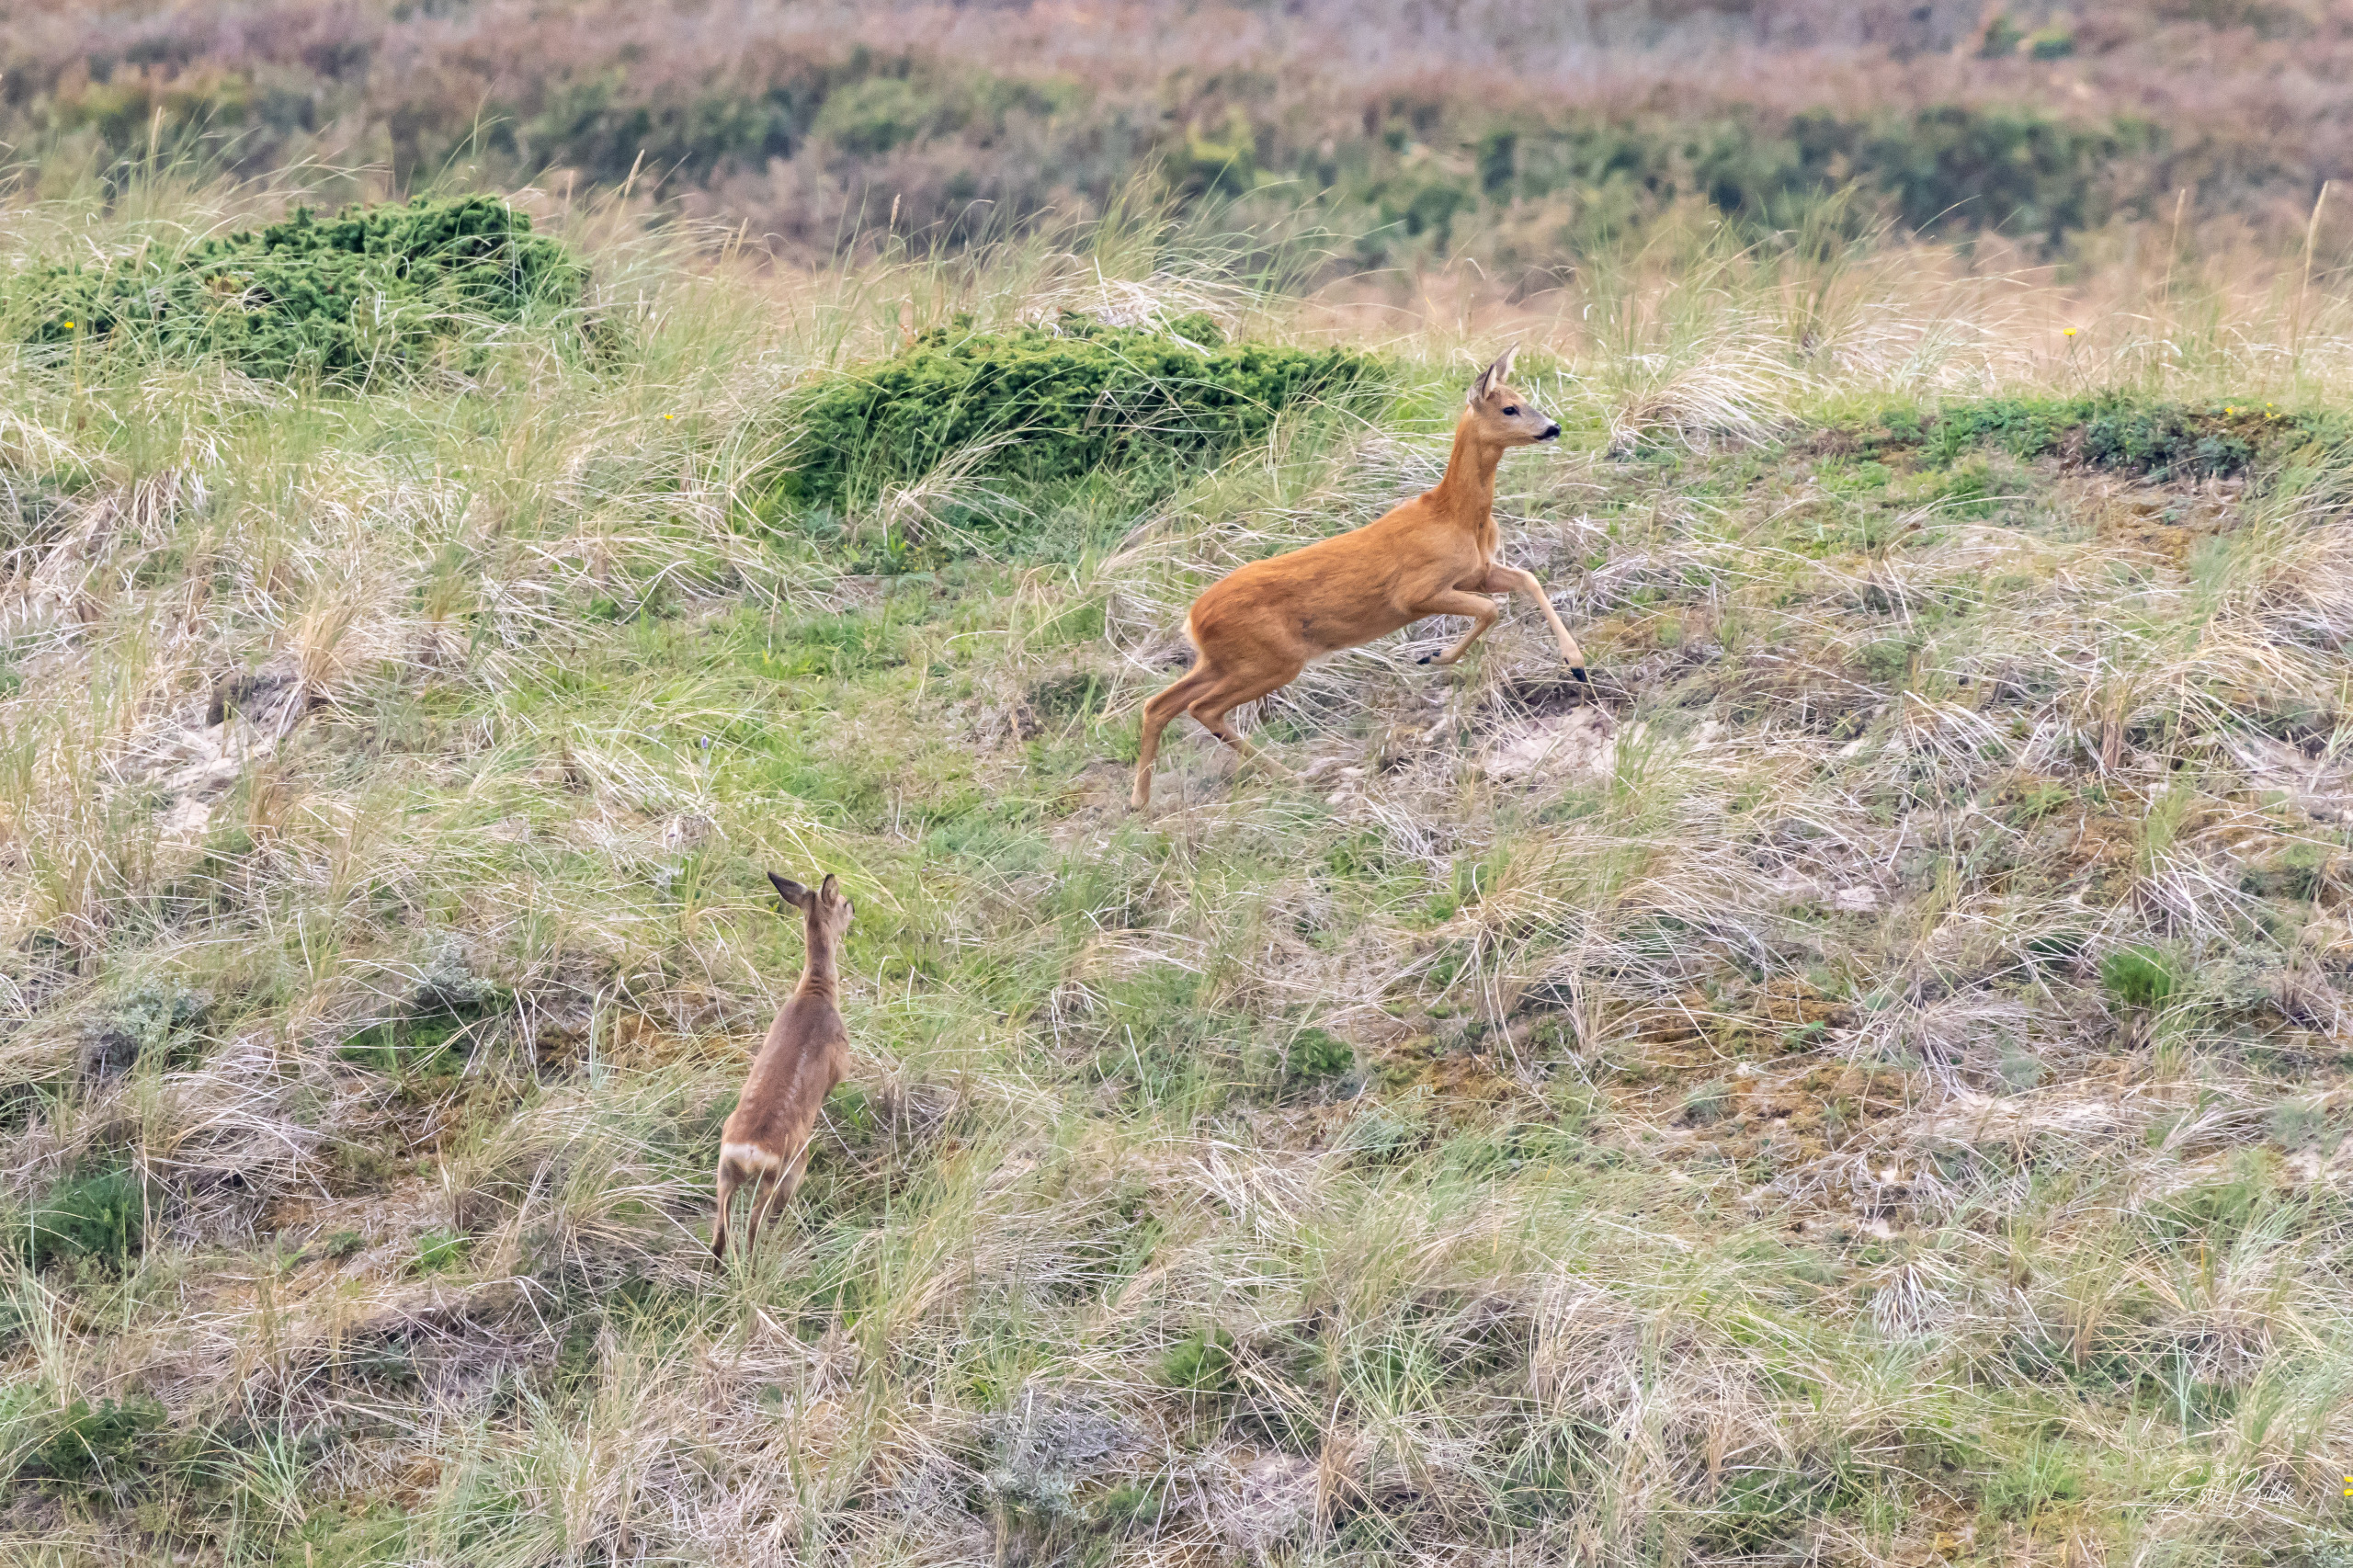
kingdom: Animalia
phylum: Chordata
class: Mammalia
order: Artiodactyla
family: Cervidae
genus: Capreolus
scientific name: Capreolus capreolus
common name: Rådyr
